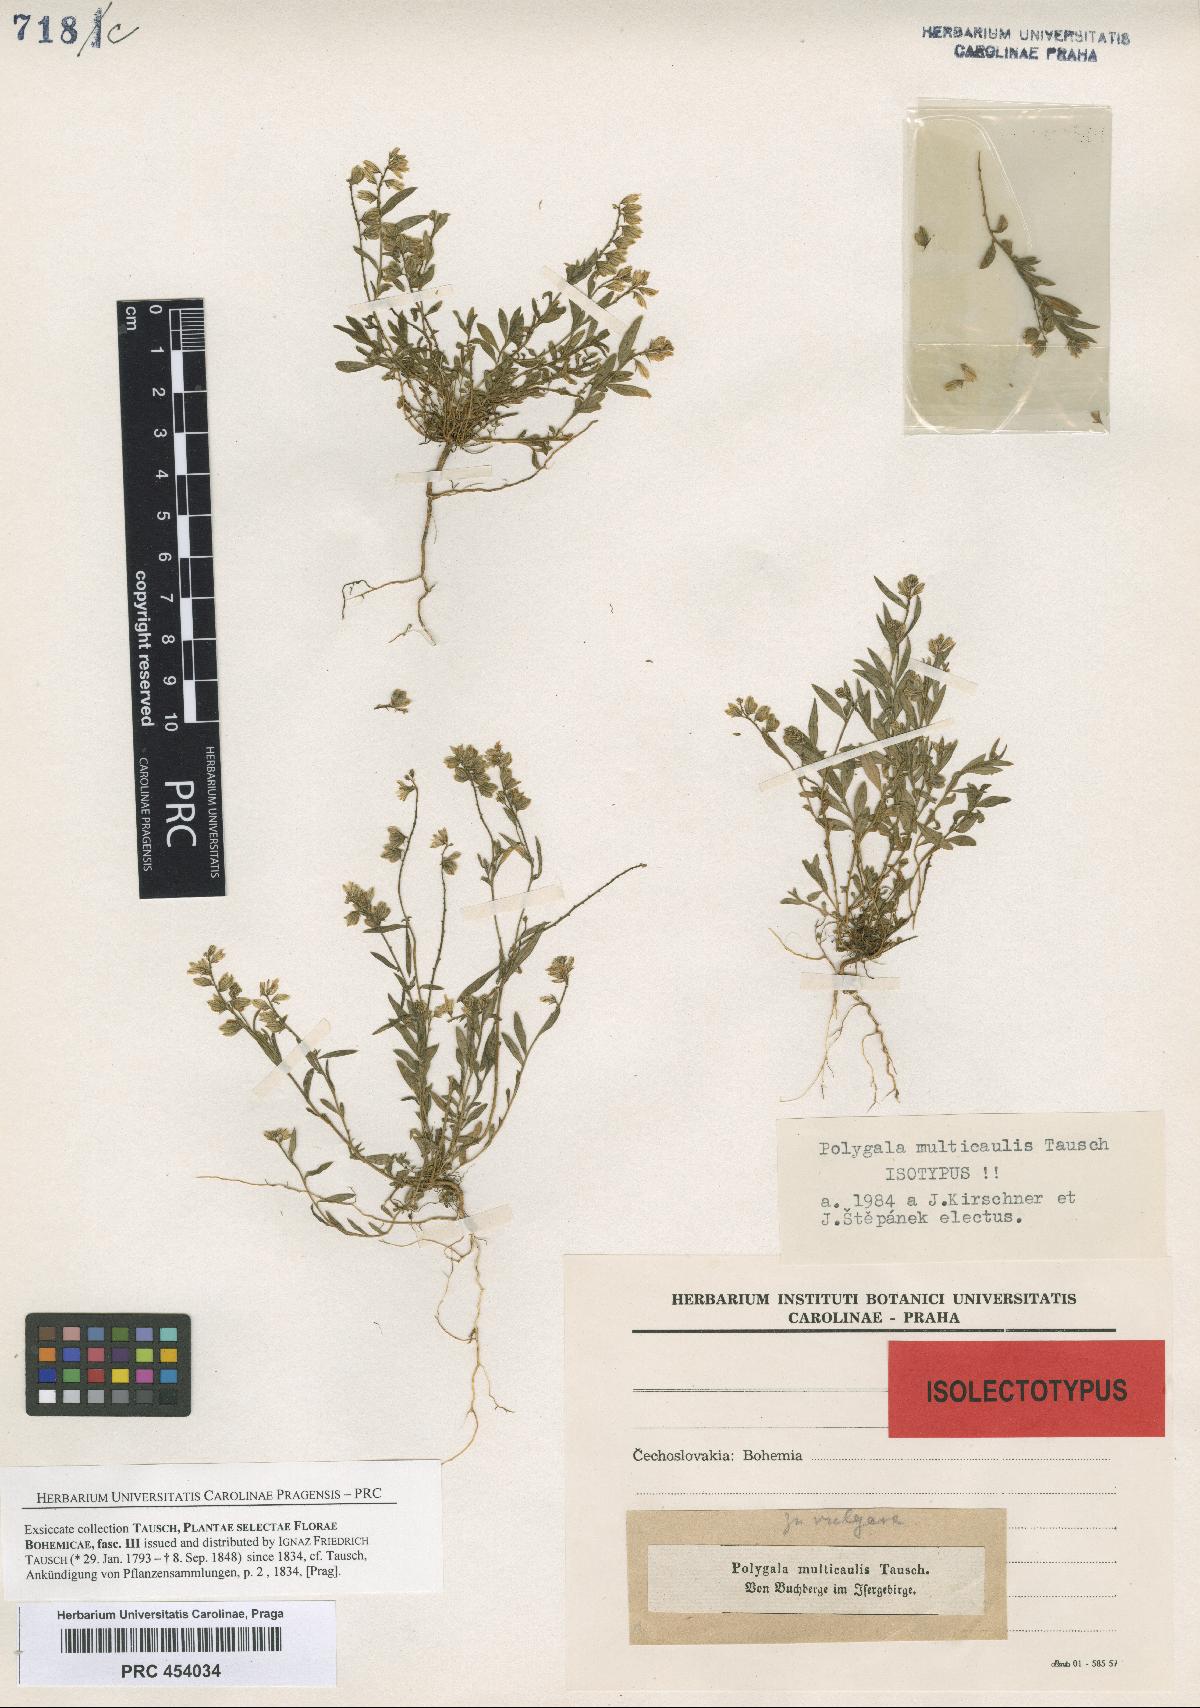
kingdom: Plantae
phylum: Tracheophyta
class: Magnoliopsida
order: Fabales
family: Polygalaceae
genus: Polygala
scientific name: Polygala vulgaris
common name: Common milkwort
